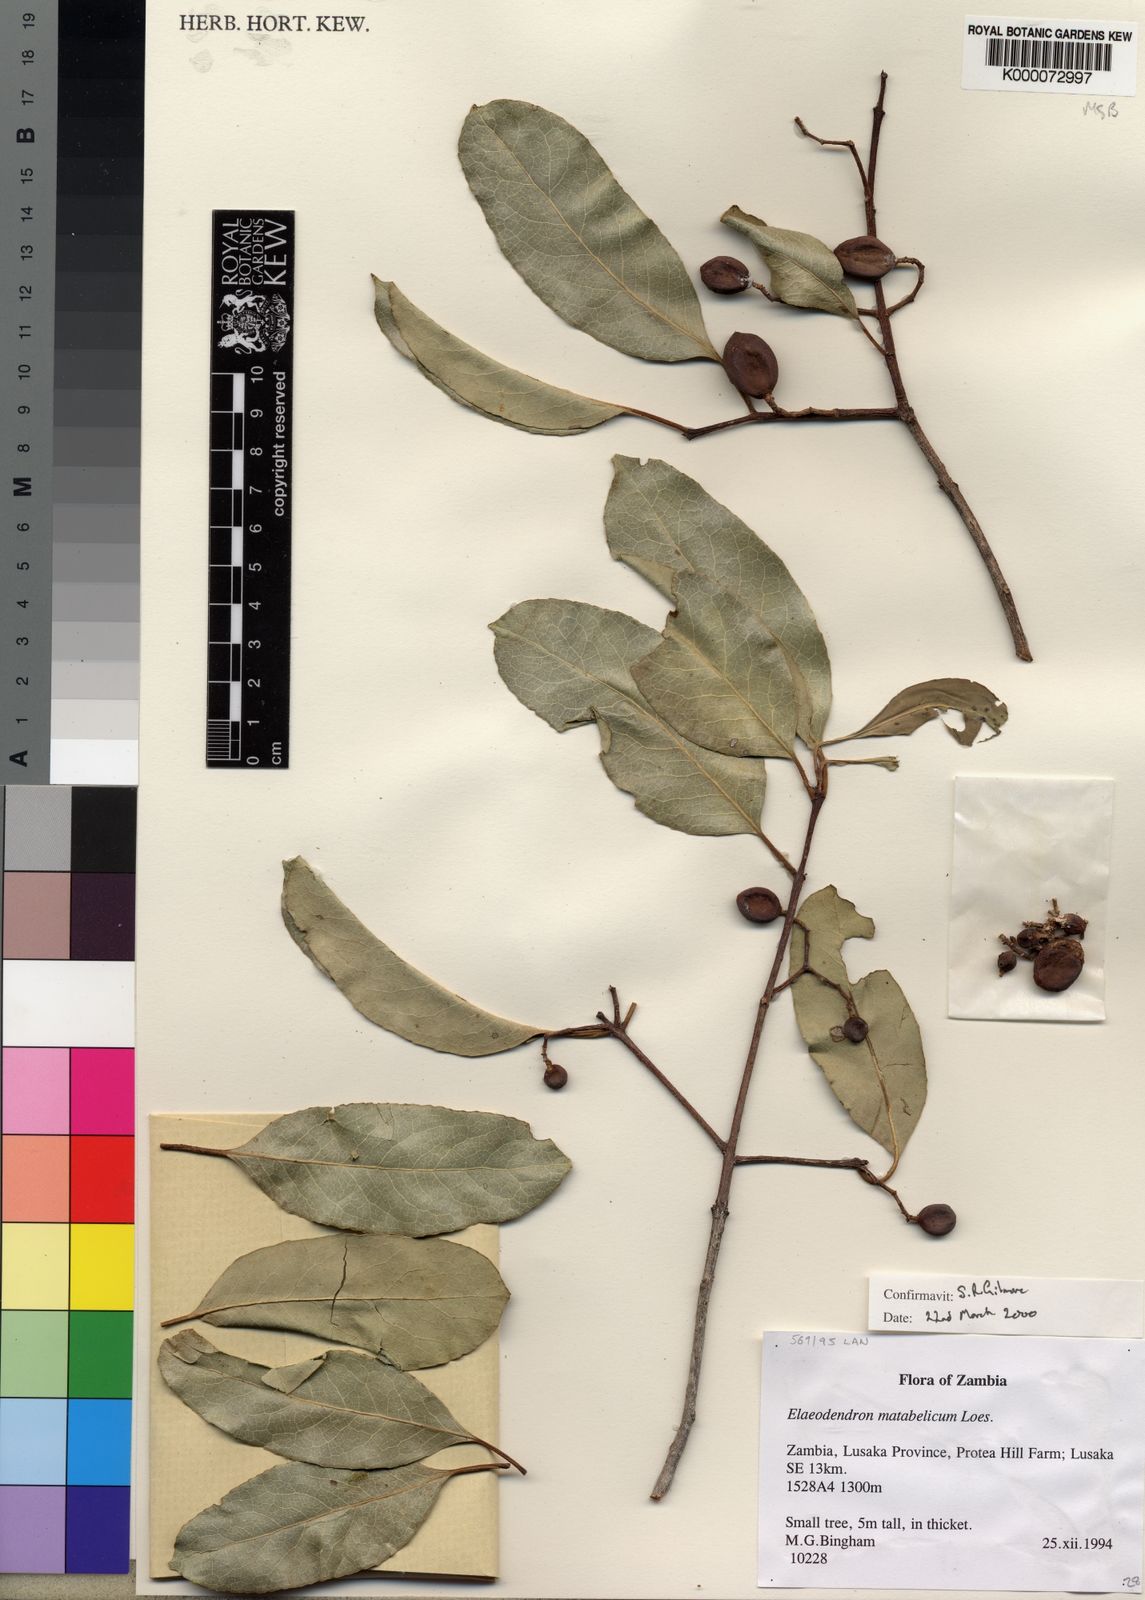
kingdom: Plantae
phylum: Tracheophyta
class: Magnoliopsida
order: Celastrales
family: Celastraceae
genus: Elaeodendron
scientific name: Elaeodendron matabelicum
